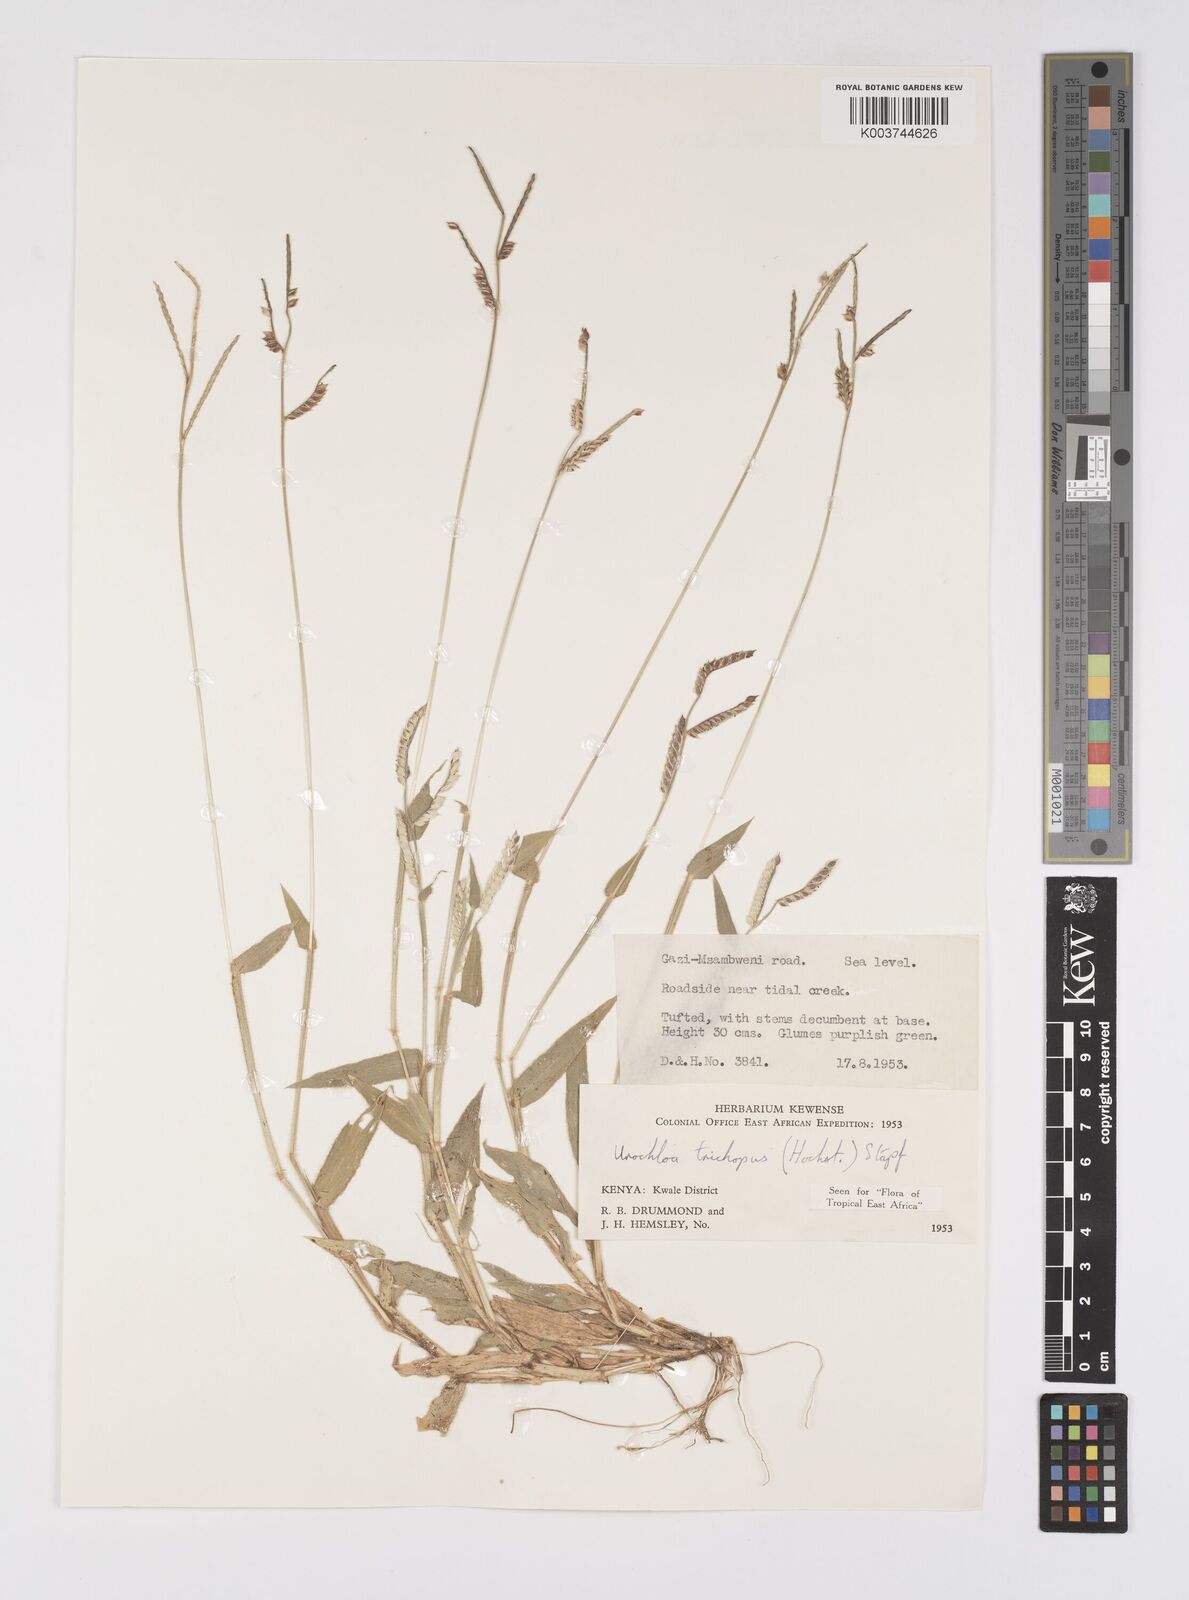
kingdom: Plantae
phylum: Tracheophyta
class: Liliopsida
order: Poales
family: Poaceae
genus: Urochloa
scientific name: Urochloa trichopus
